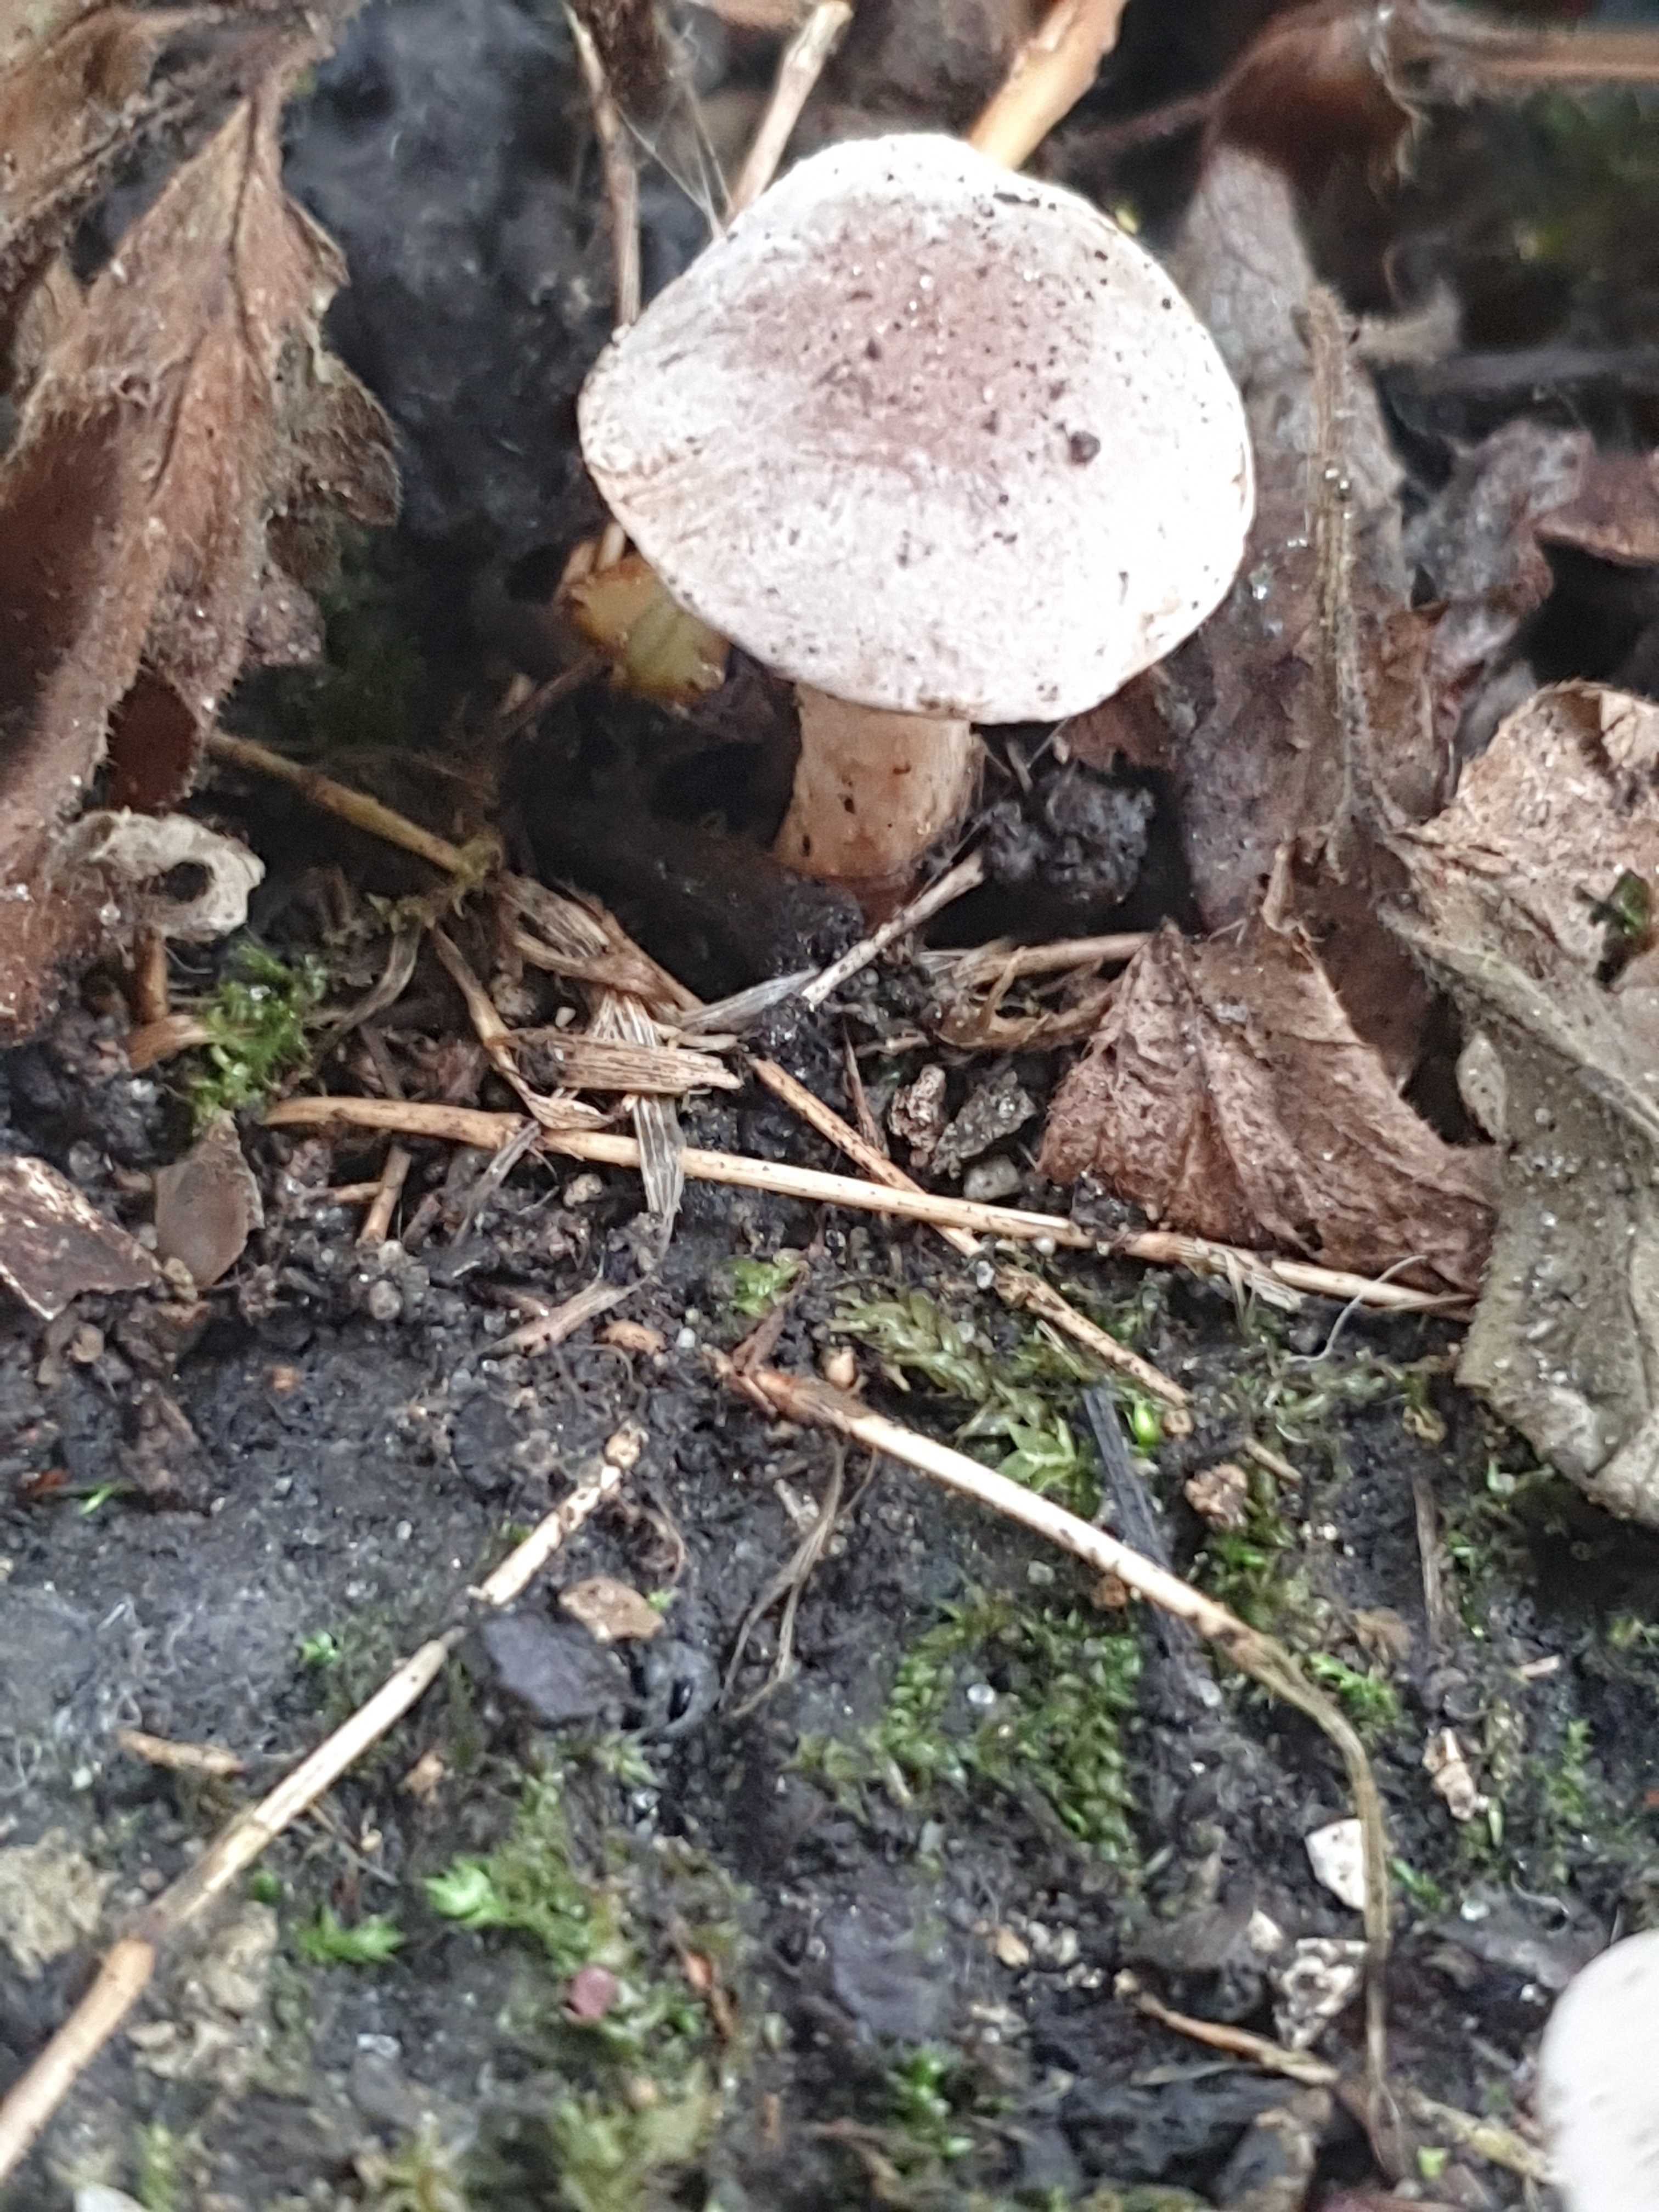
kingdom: Fungi
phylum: Basidiomycota
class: Agaricomycetes
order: Agaricales
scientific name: Agaricales
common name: champignonordenen
